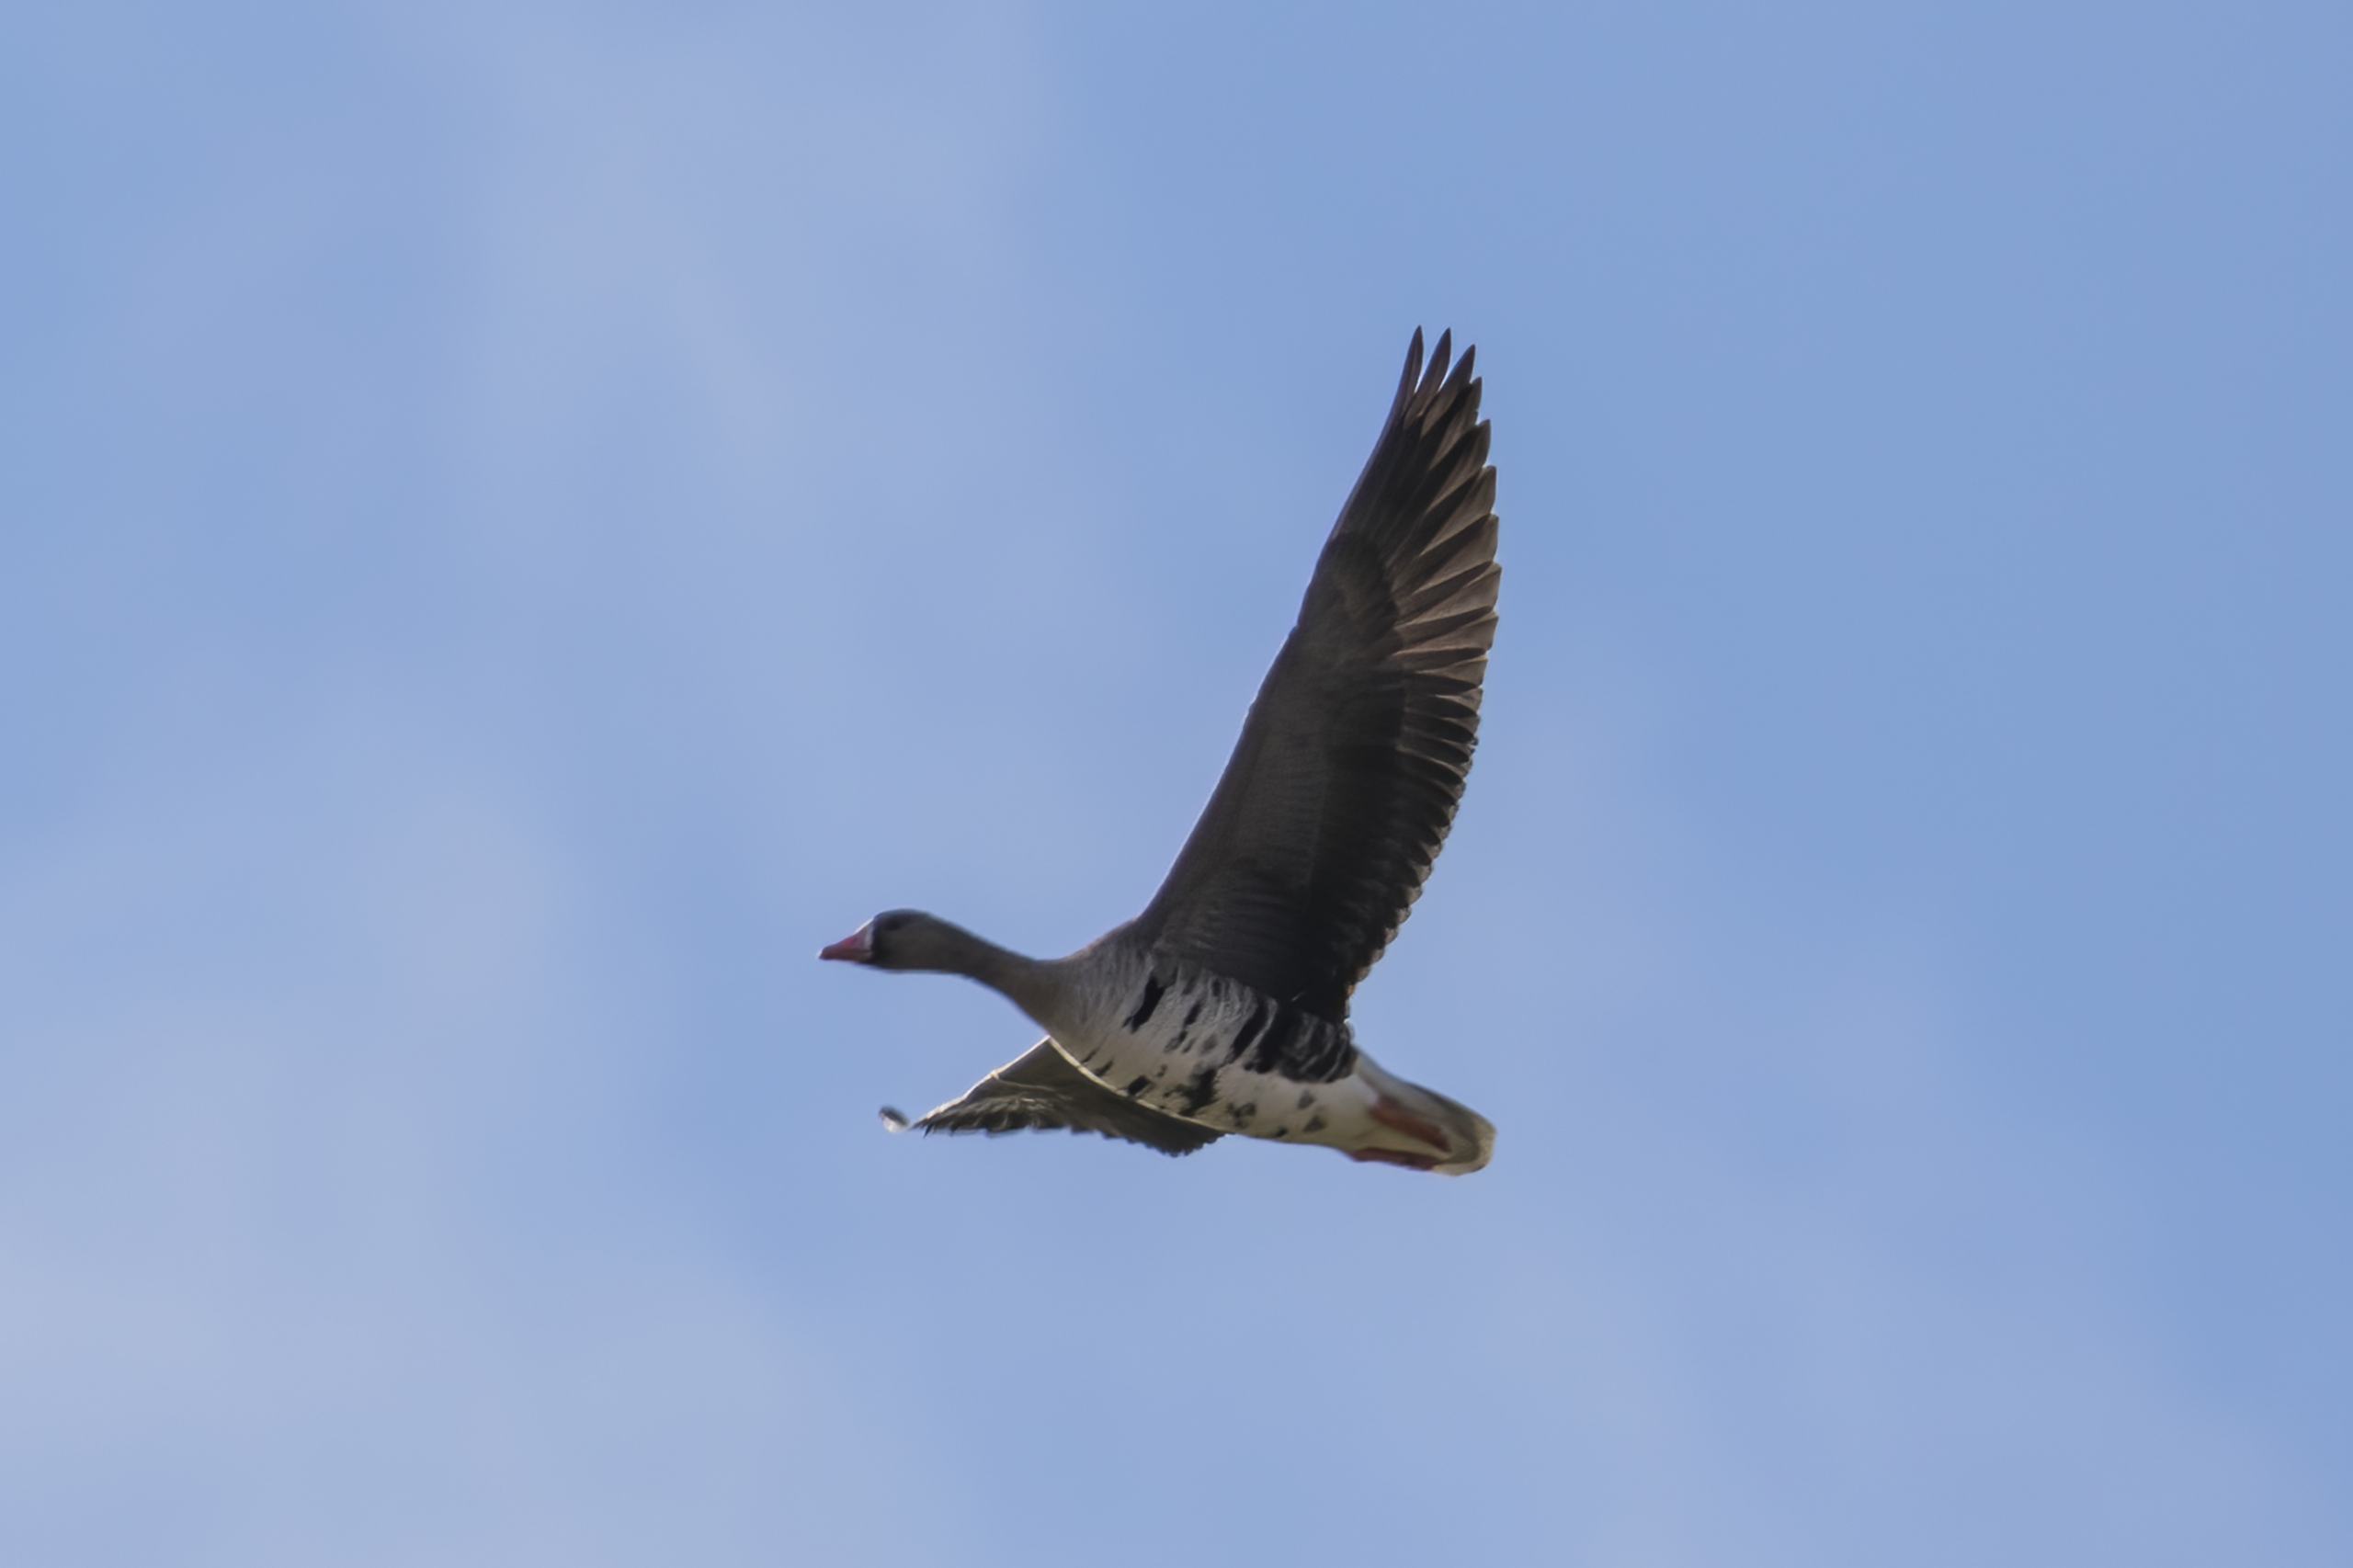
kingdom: Animalia
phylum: Chordata
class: Aves
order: Anseriformes
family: Anatidae
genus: Anser
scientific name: Anser albifrons
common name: Blisgås
